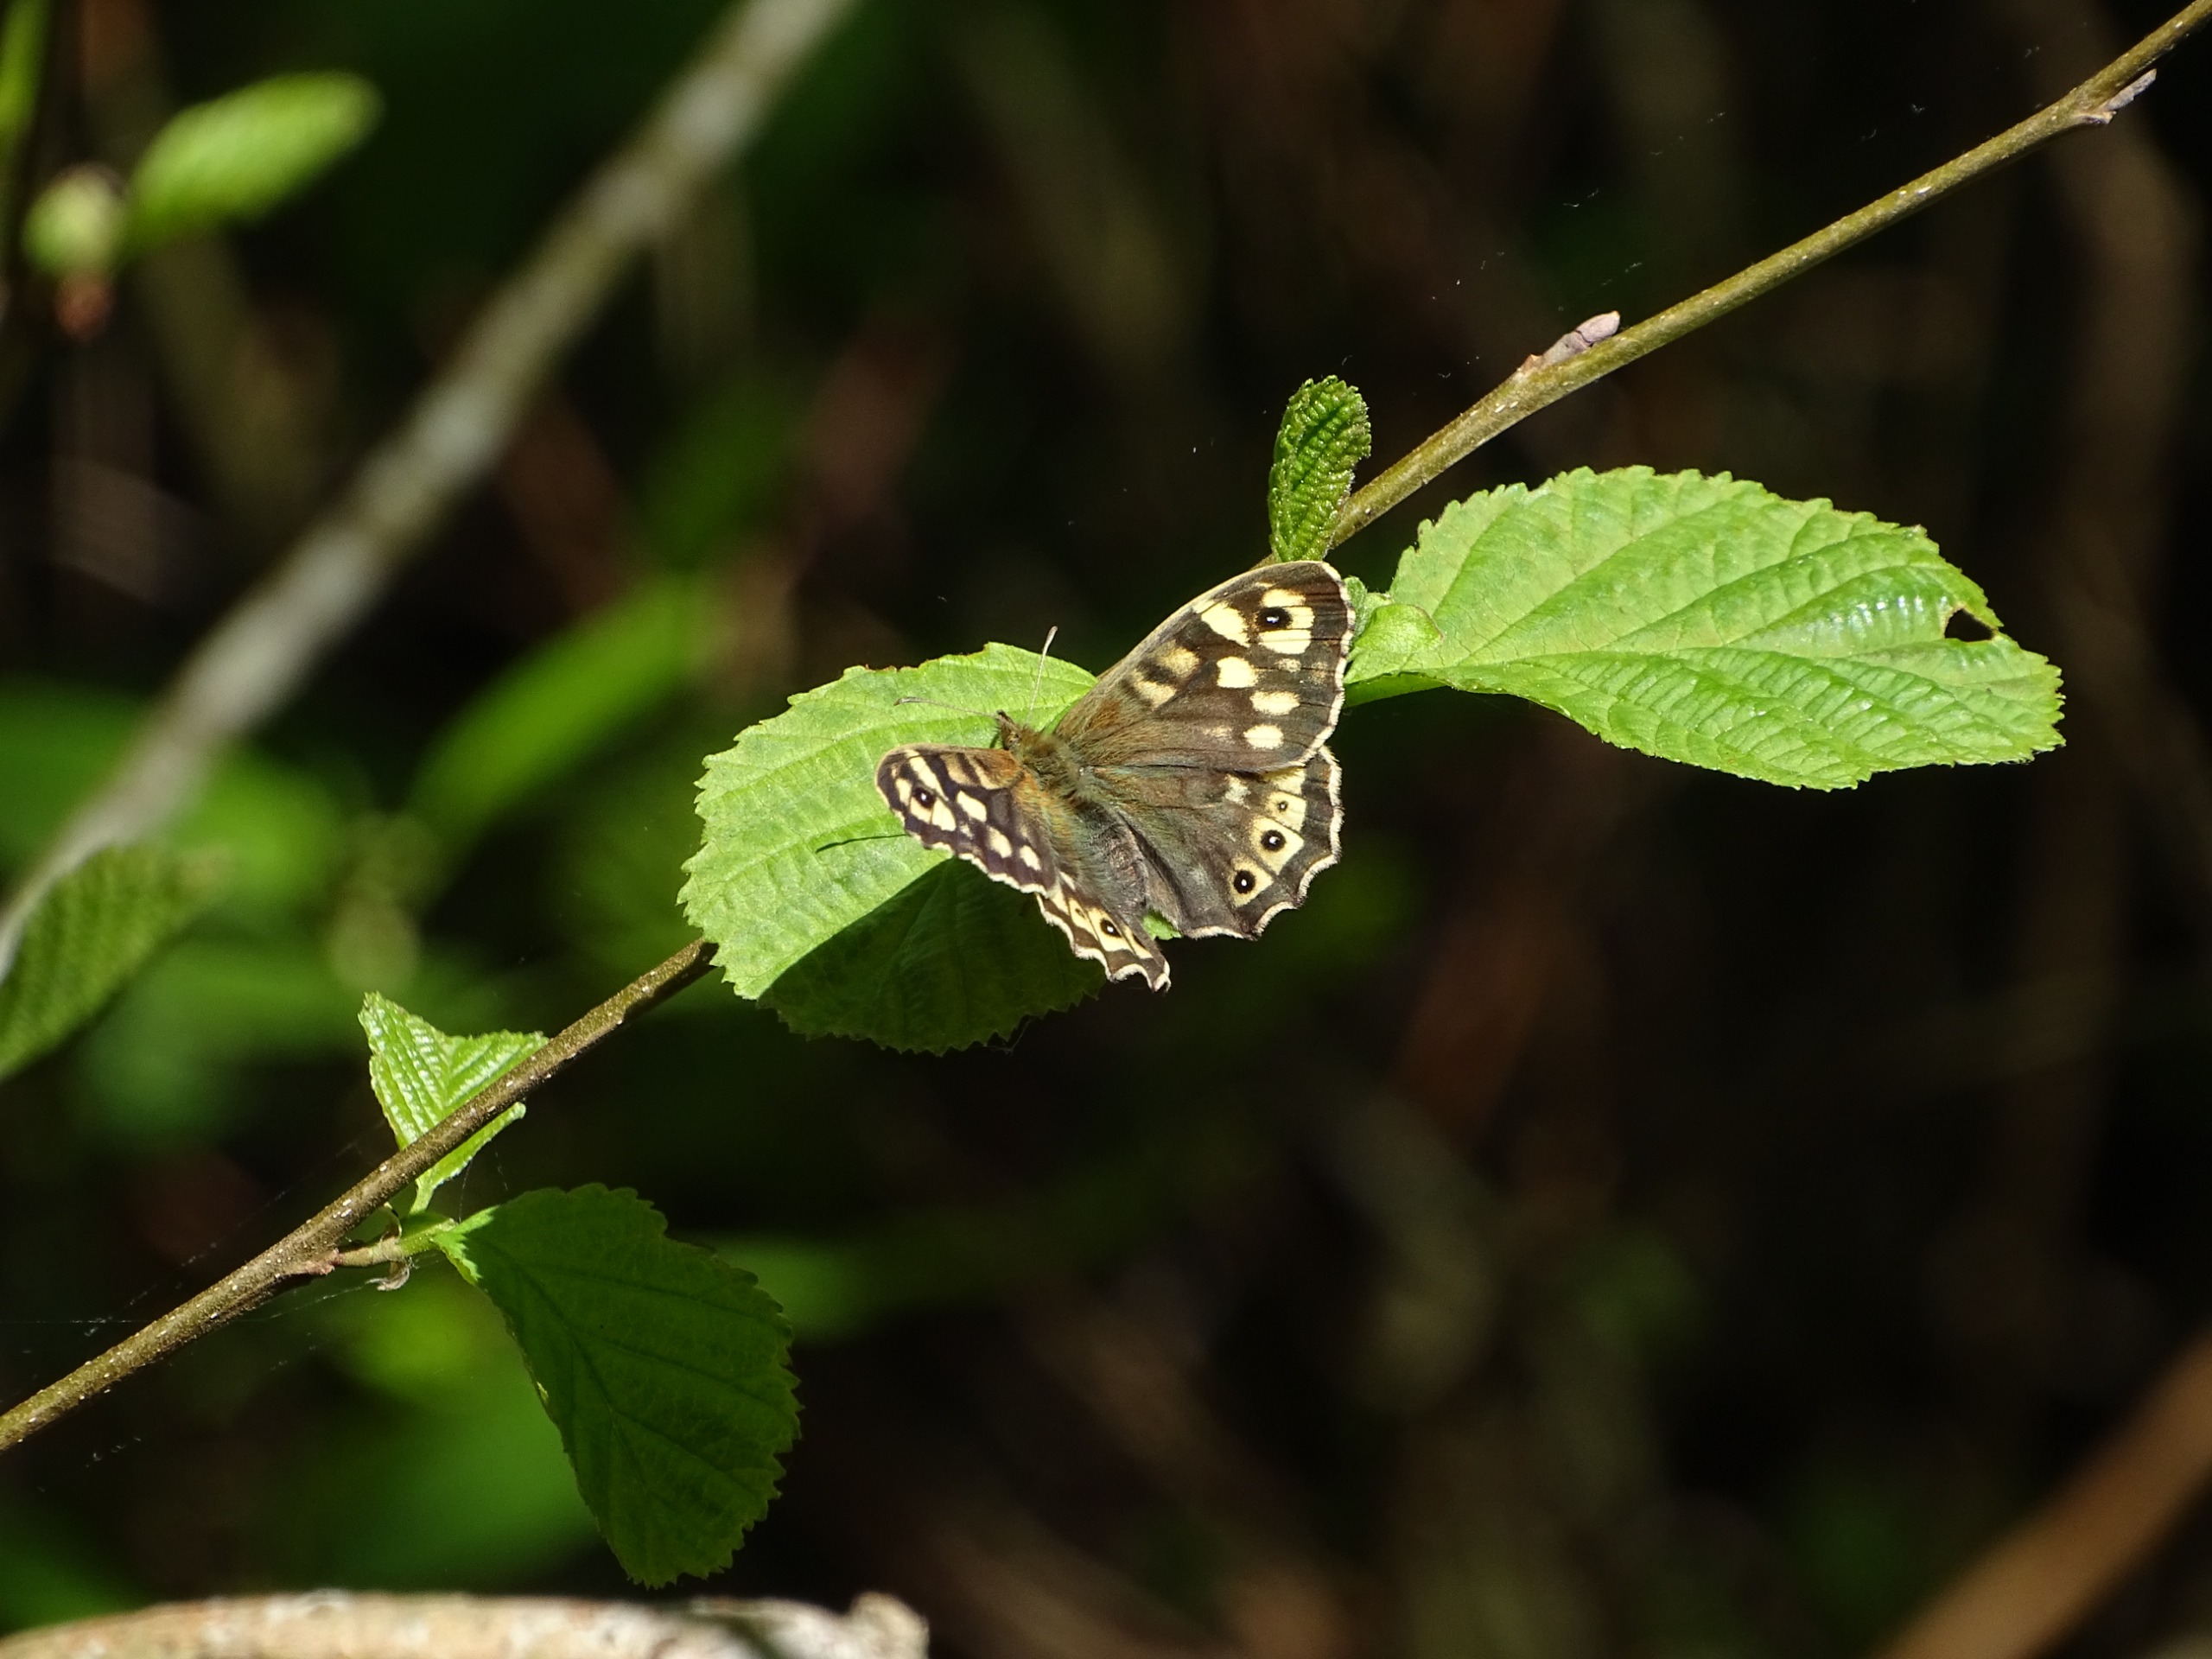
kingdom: Animalia
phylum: Arthropoda
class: Insecta
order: Lepidoptera
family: Nymphalidae
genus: Pararge
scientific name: Pararge aegeria
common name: Skovrandøje
